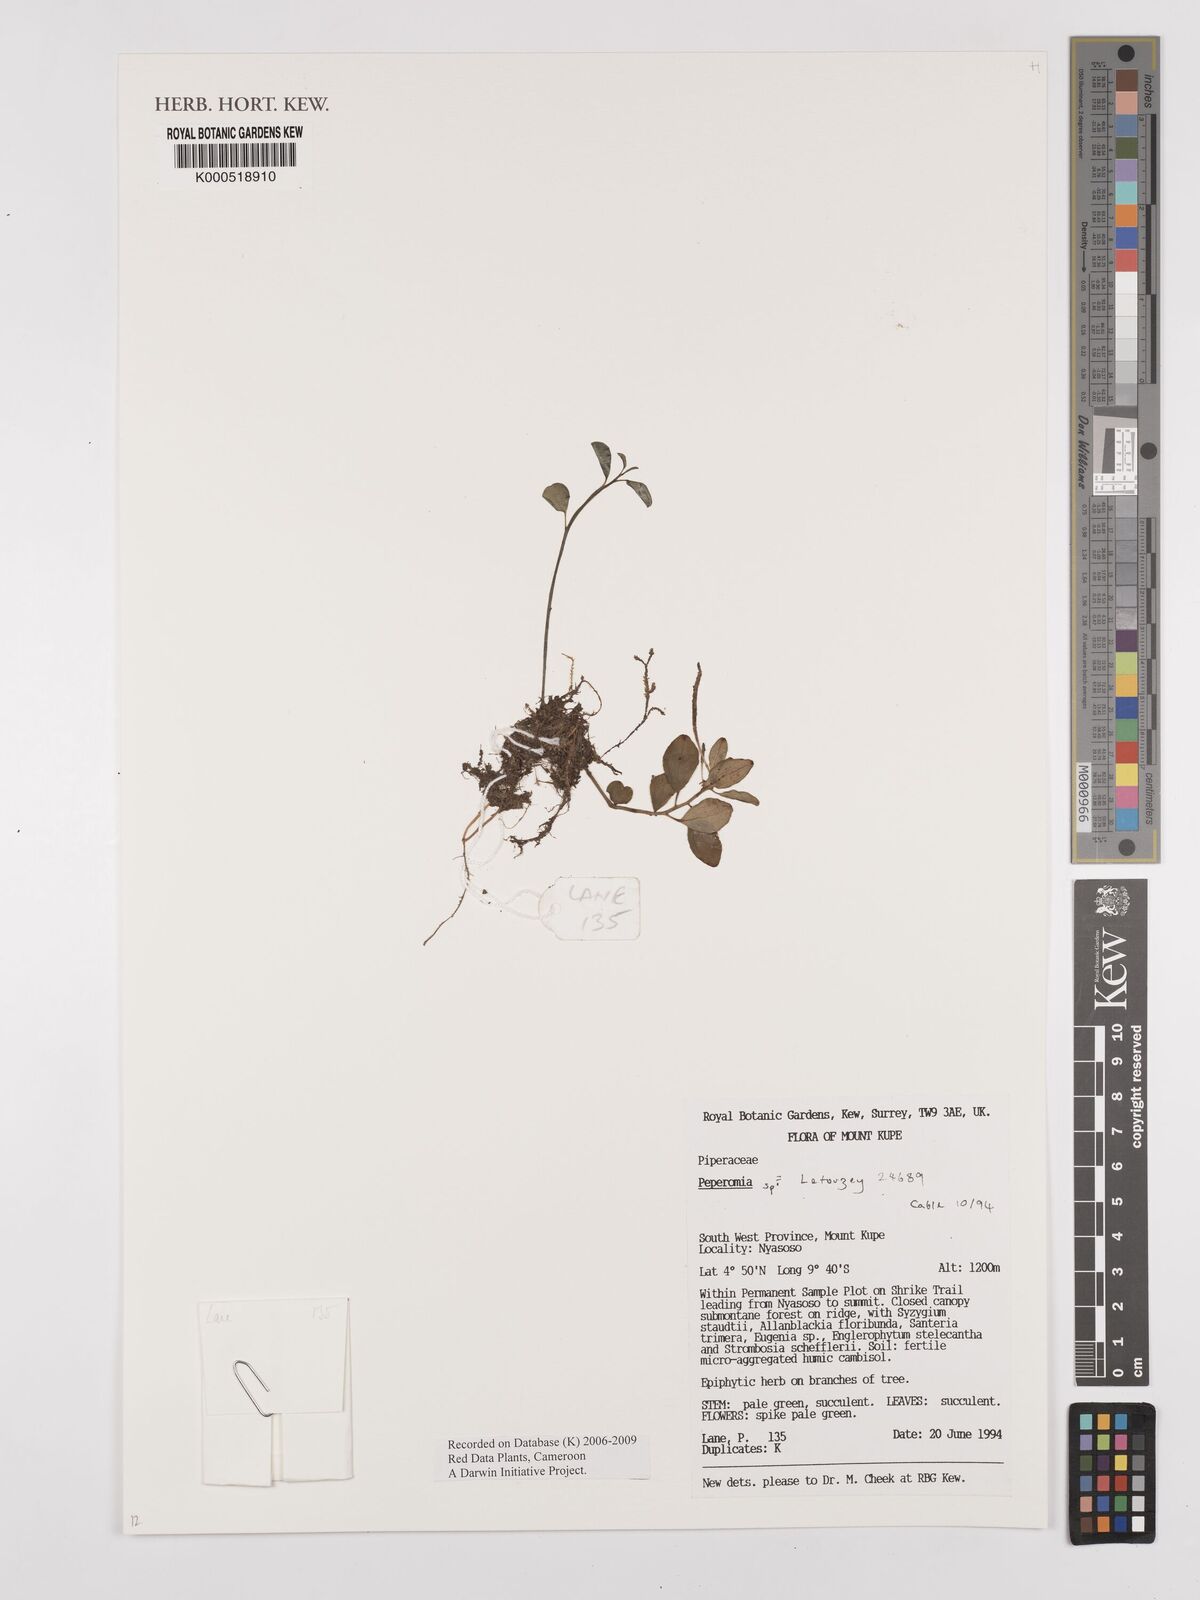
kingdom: Plantae
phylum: Tracheophyta
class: Magnoliopsida
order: Piperales
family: Piperaceae
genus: Peperomia
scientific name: Peperomia
